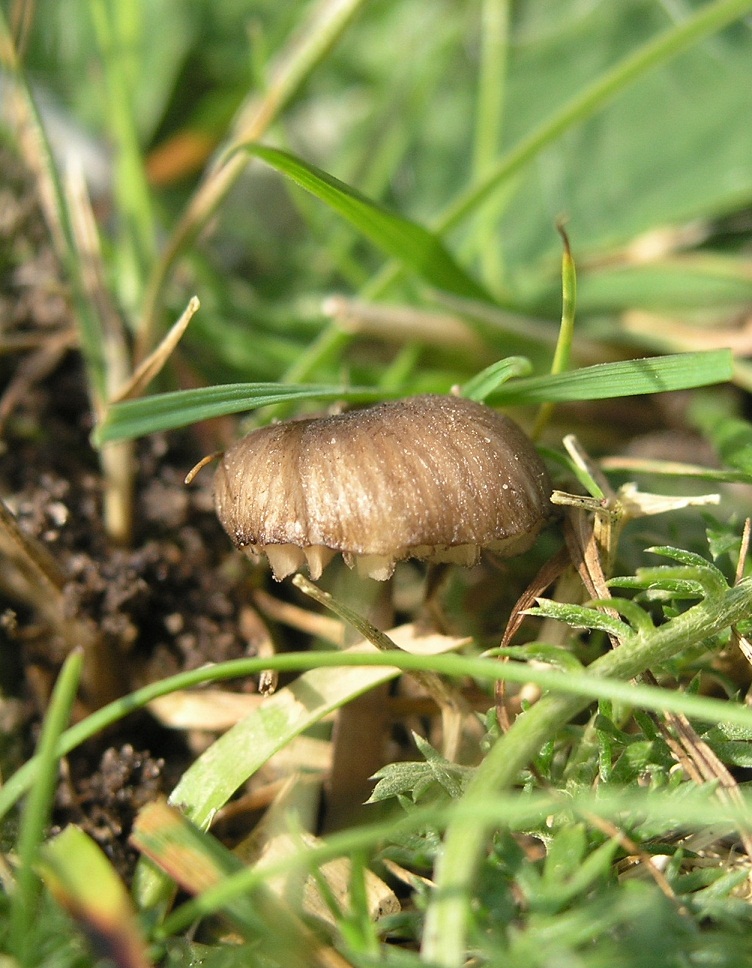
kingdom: Fungi
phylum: Basidiomycota
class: Agaricomycetes
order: Agaricales
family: Entolomataceae
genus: Entoloma
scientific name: Entoloma
